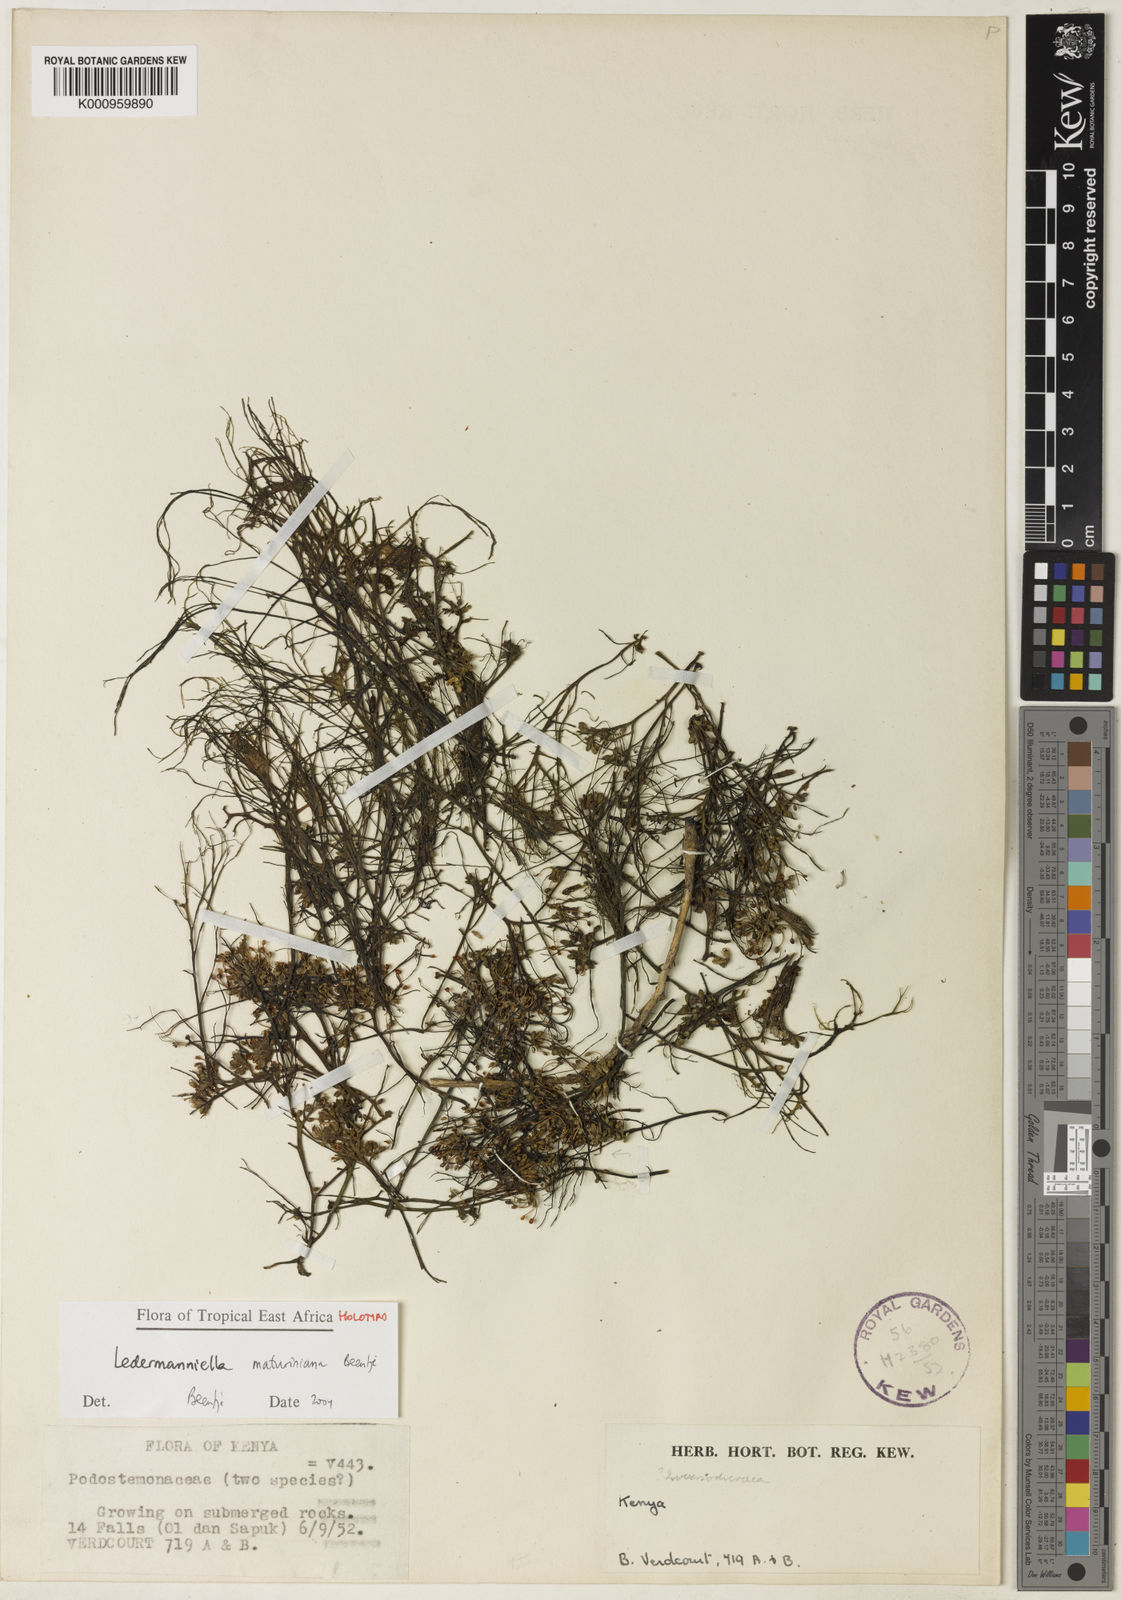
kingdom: Plantae
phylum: Tracheophyta
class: Magnoliopsida
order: Malpighiales
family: Podostemaceae
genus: Inversodicraea
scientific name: Inversodicraea tenax
